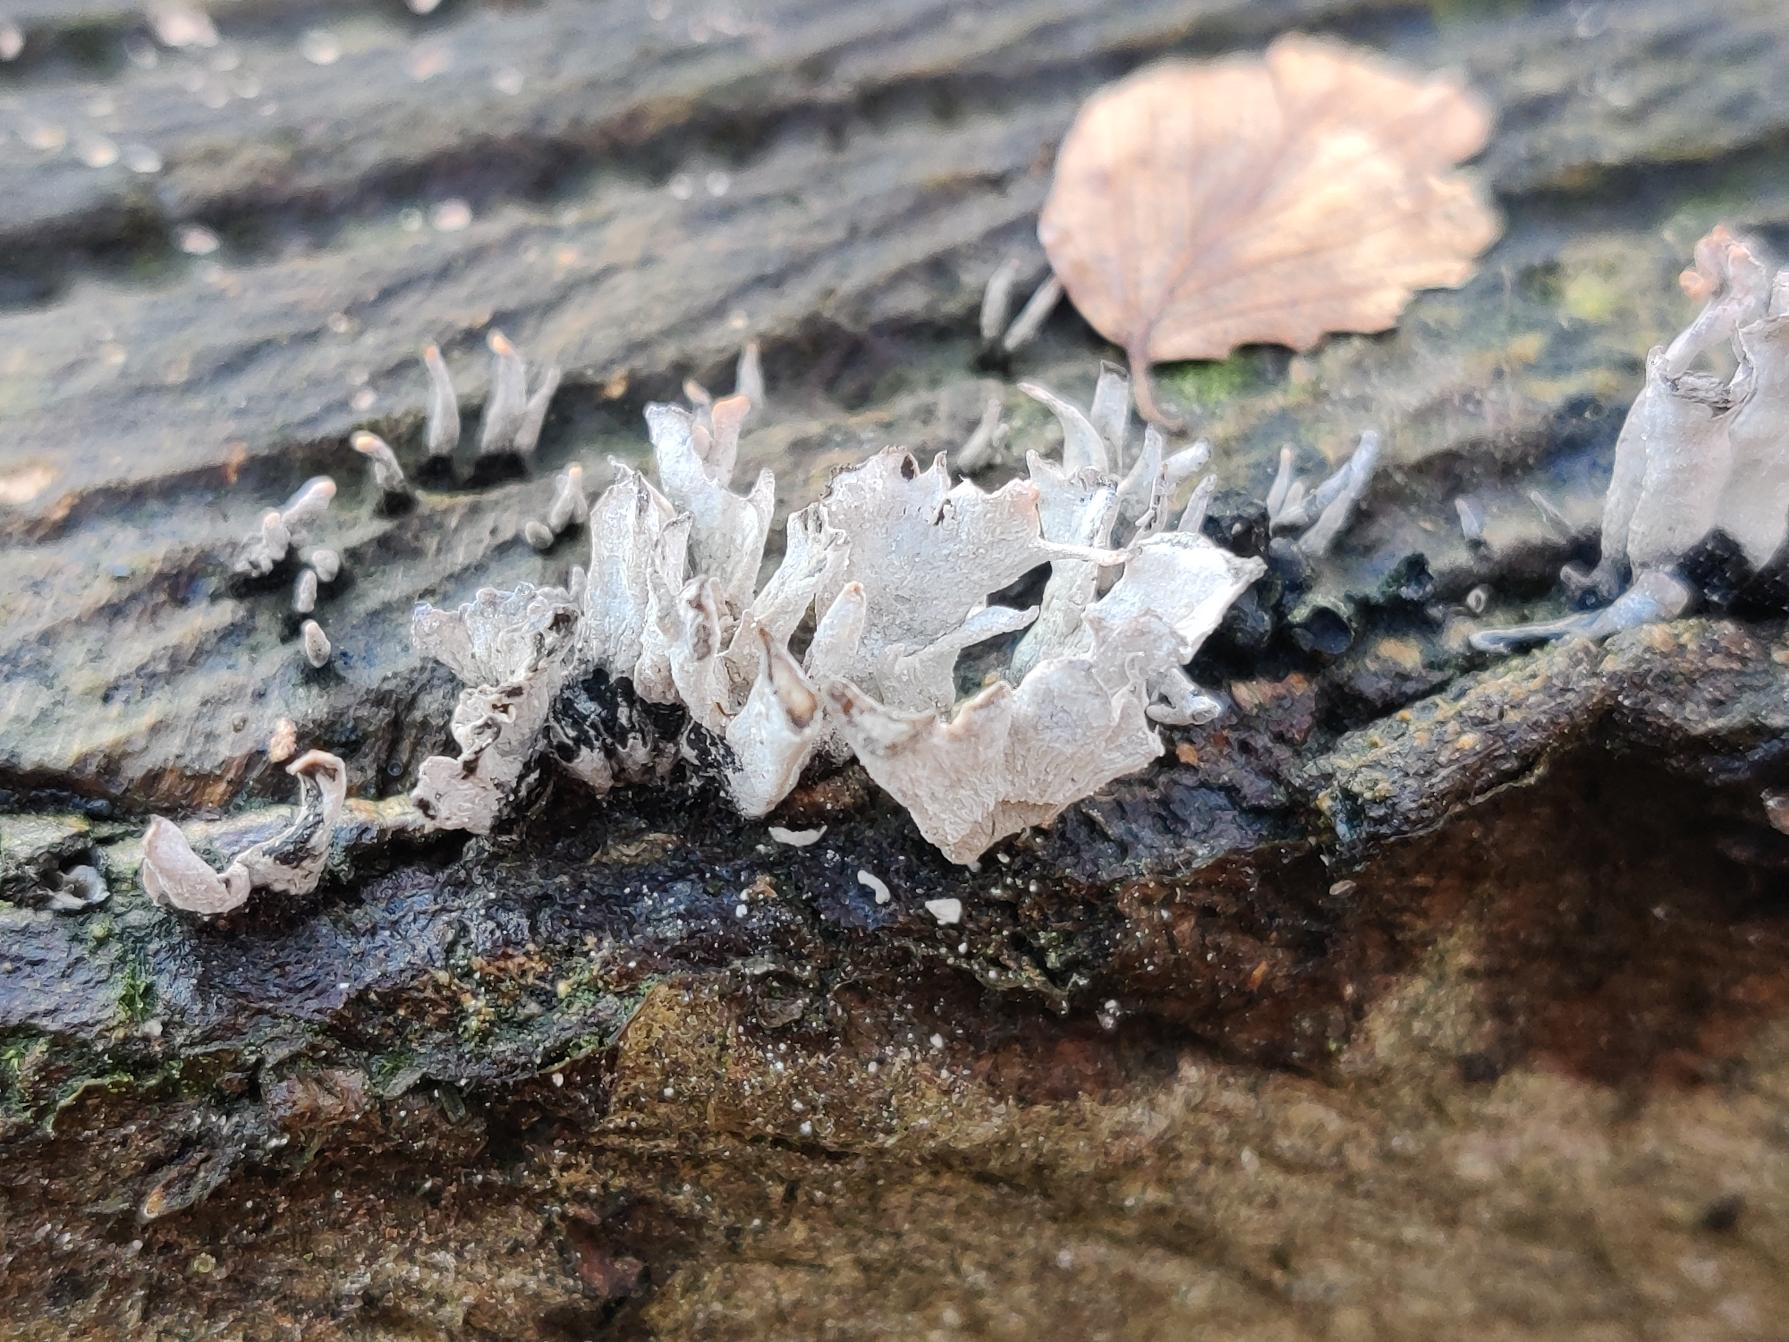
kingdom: Fungi
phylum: Ascomycota
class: Sordariomycetes
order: Xylariales
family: Xylariaceae
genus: Xylaria
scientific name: Xylaria hypoxylon
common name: Grenet stødsvamp
